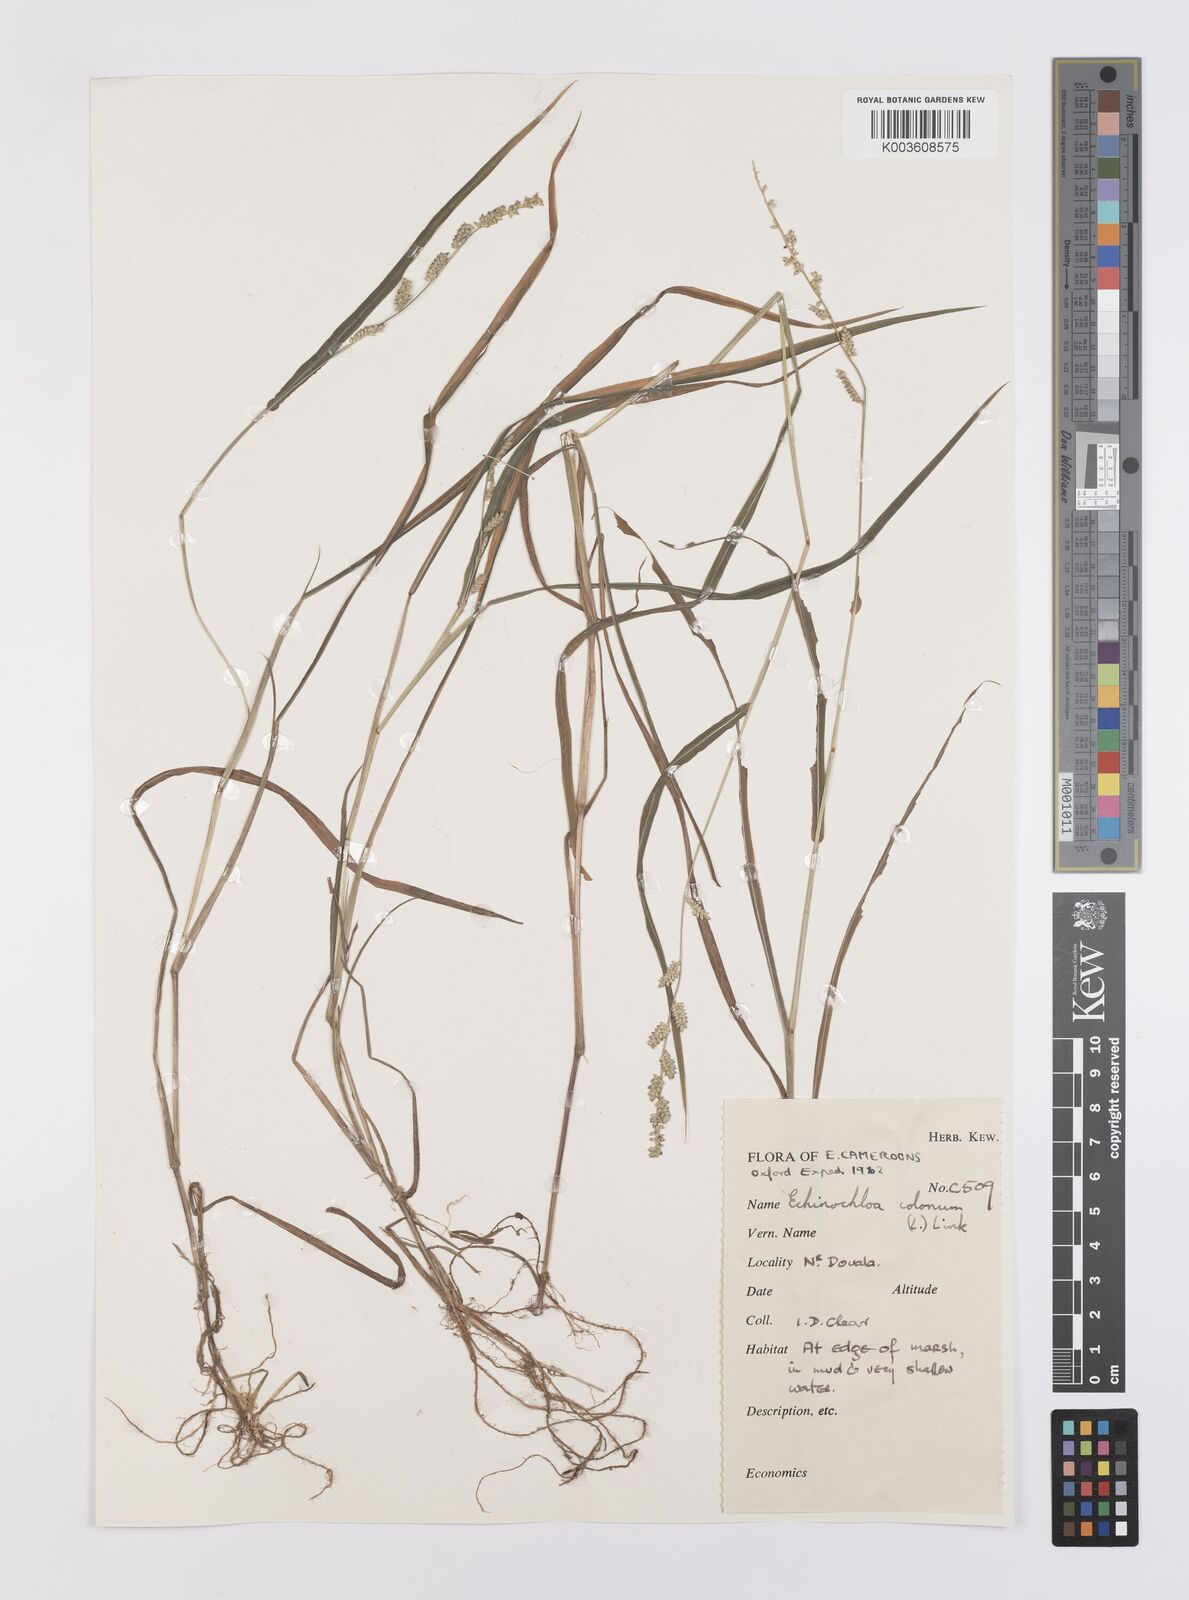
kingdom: Plantae
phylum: Tracheophyta
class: Liliopsida
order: Poales
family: Poaceae
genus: Echinochloa
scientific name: Echinochloa colonum
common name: Jungle rice
